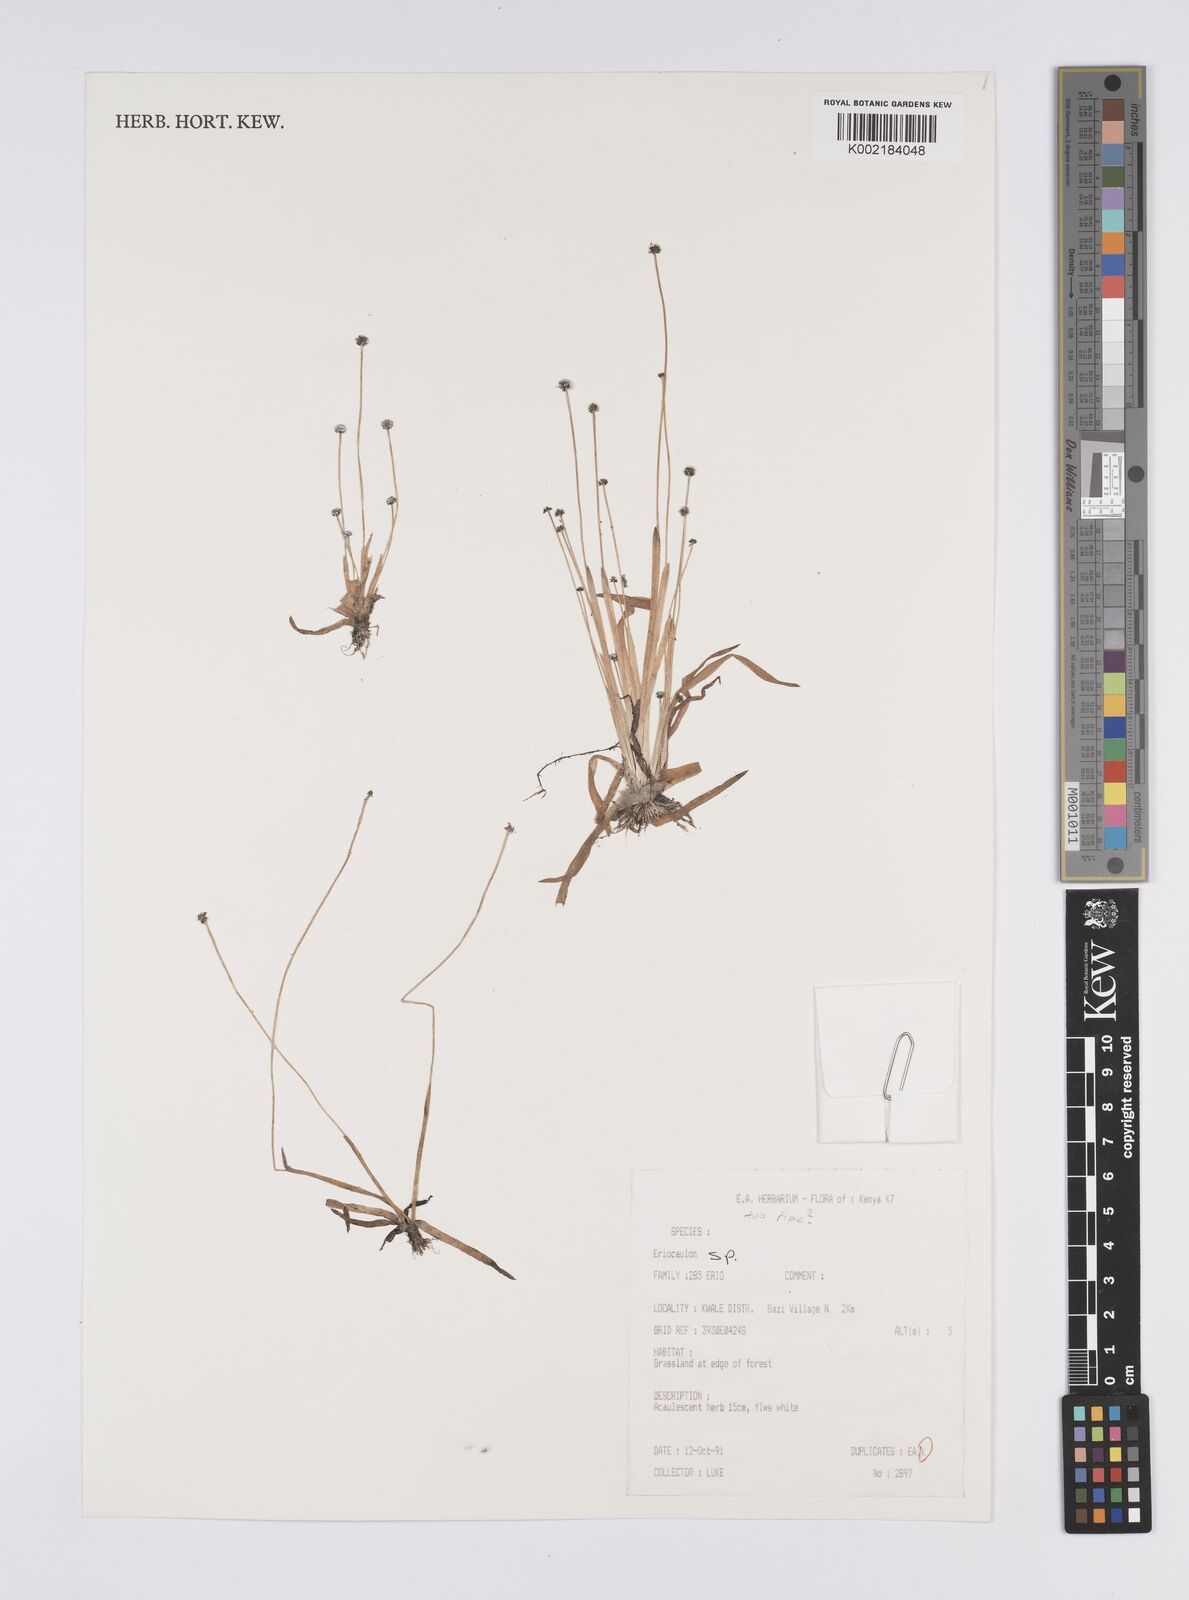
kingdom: Plantae
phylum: Tracheophyta
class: Liliopsida
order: Poales
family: Eriocaulaceae
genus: Eriocaulon
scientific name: Eriocaulon
